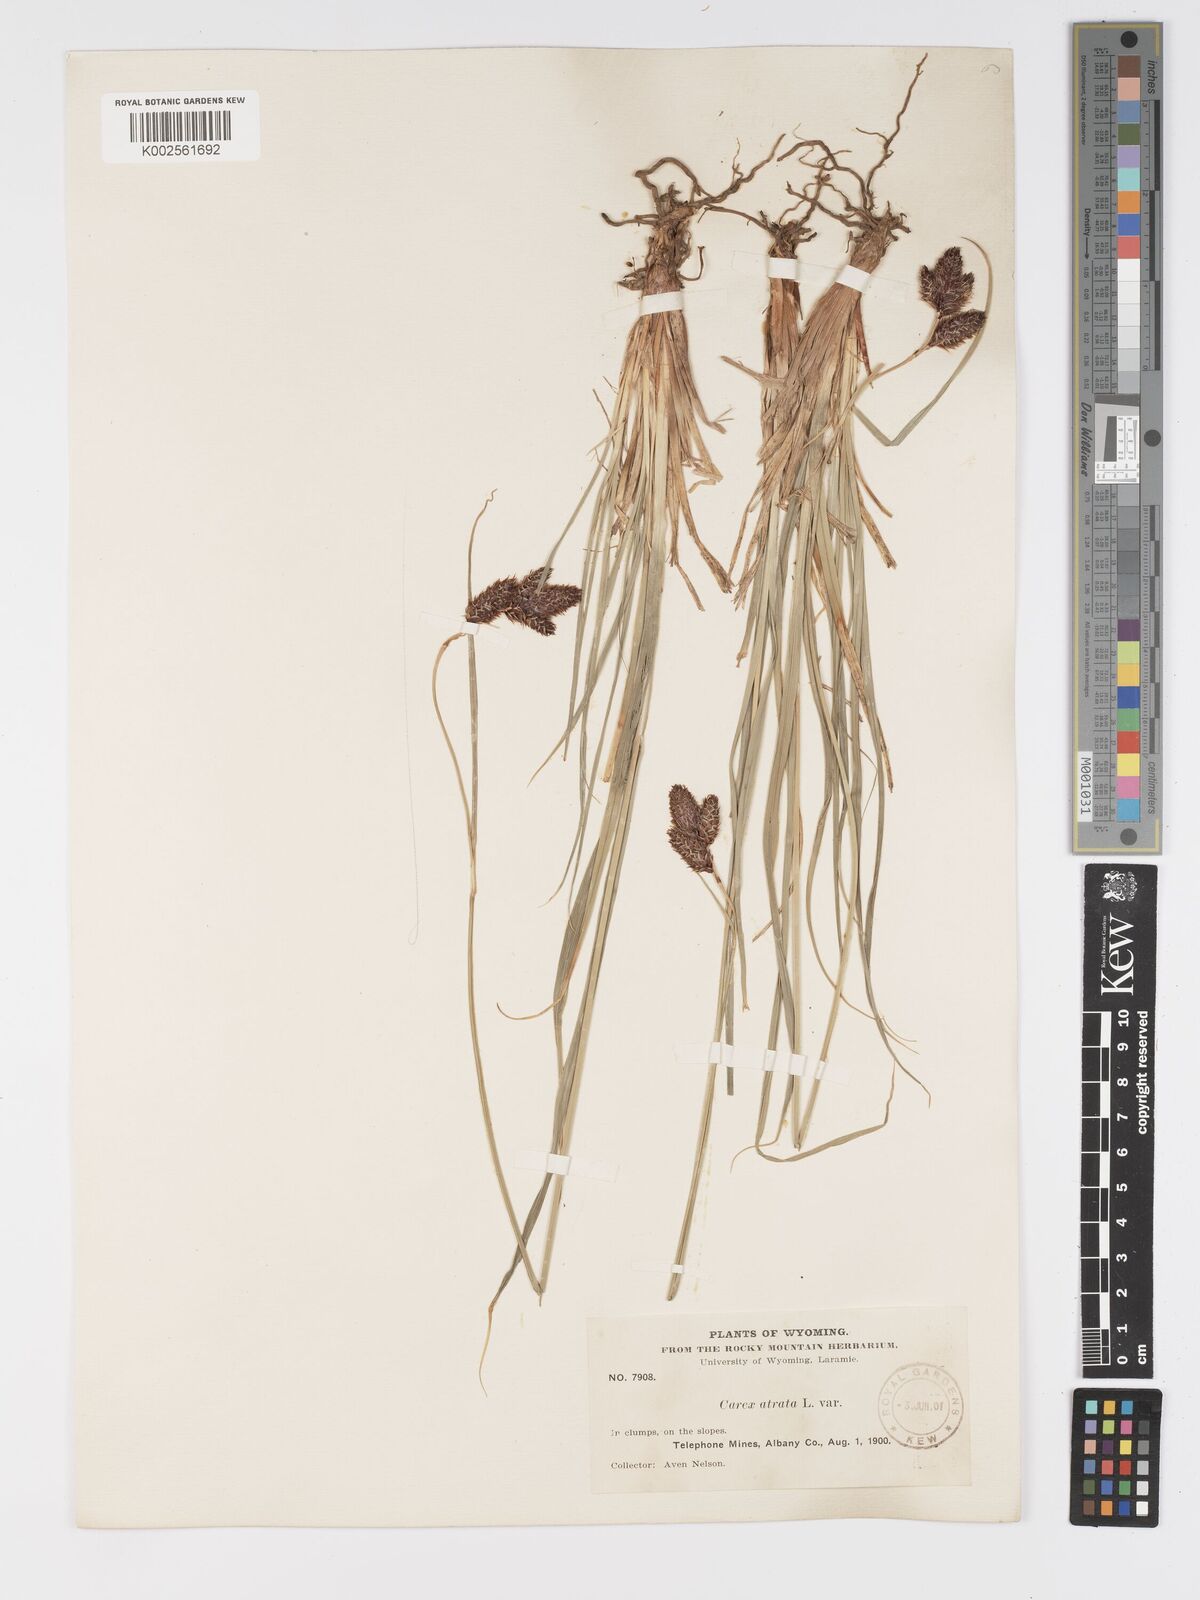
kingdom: Plantae
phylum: Tracheophyta
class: Liliopsida
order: Poales
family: Cyperaceae
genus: Carex
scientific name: Carex chalciolepis
